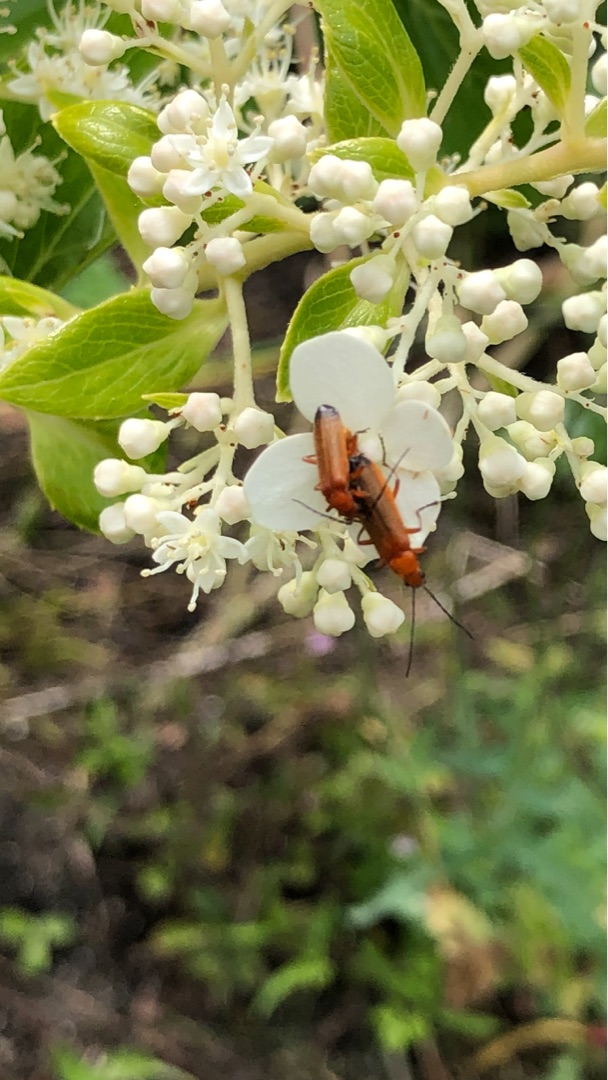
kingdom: Animalia
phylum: Arthropoda
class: Insecta
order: Coleoptera
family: Cantharidae
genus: Rhagonycha
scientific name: Rhagonycha fulva
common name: Præstebille
